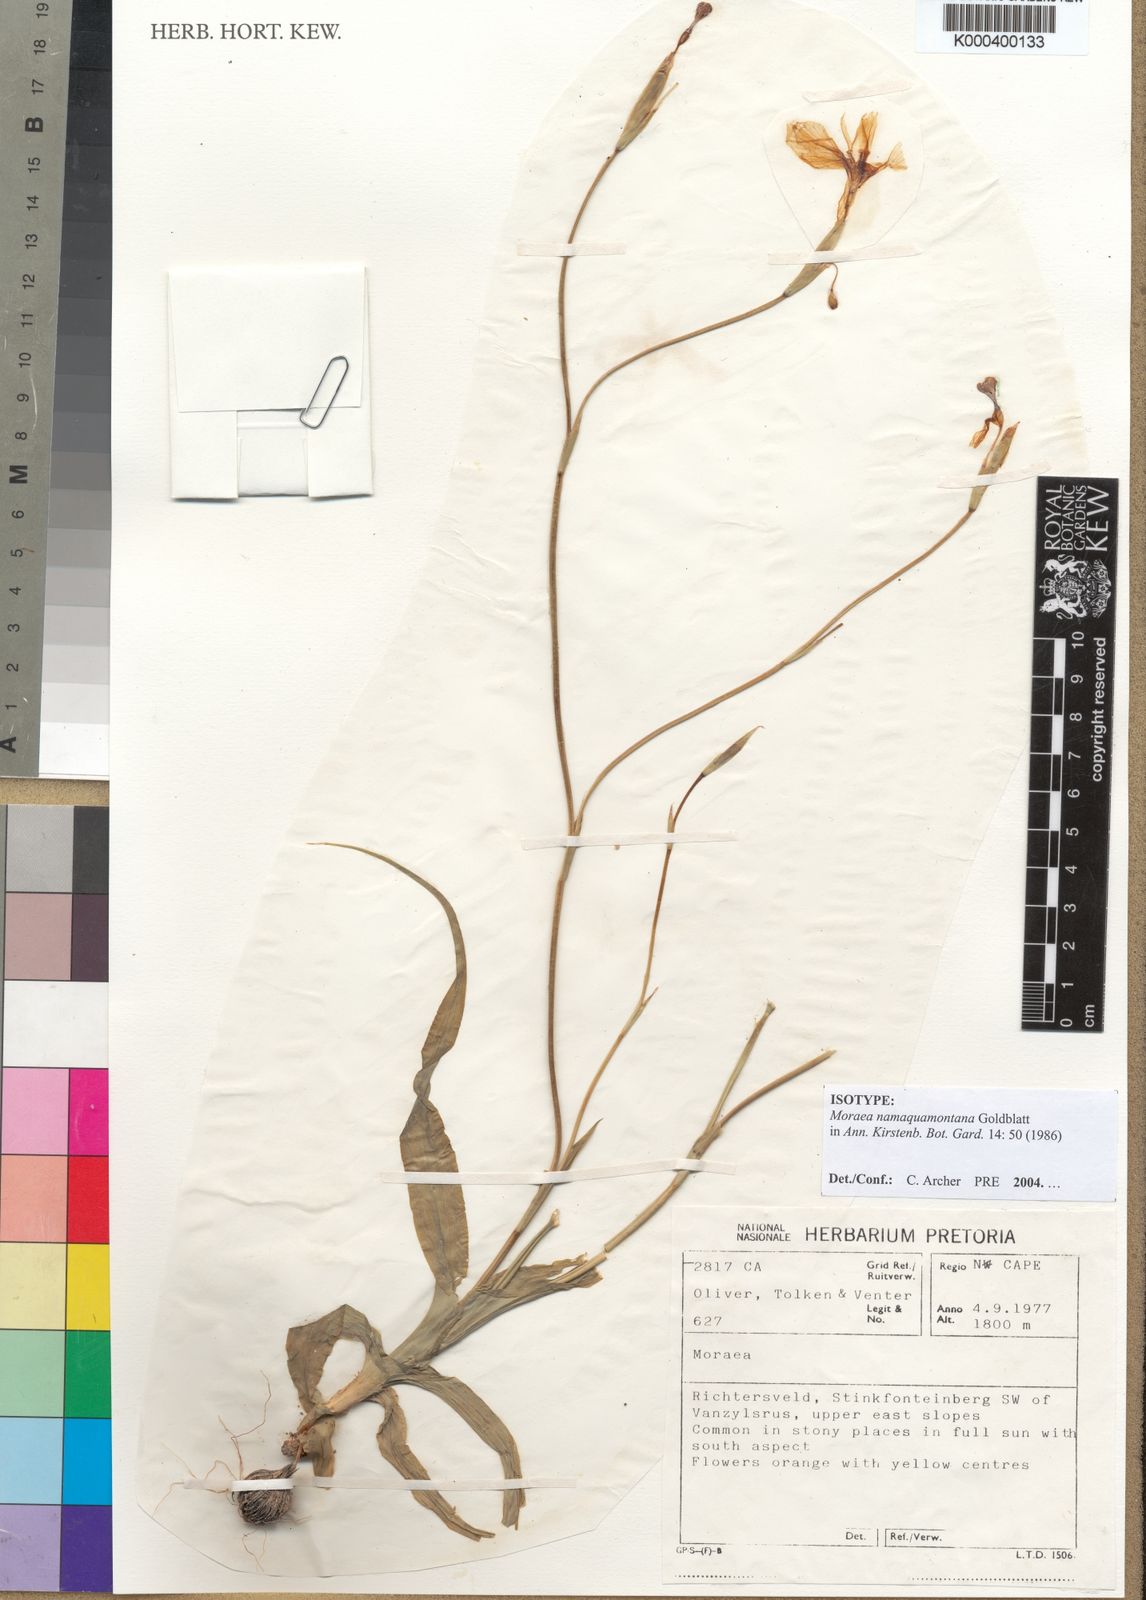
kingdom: Plantae
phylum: Tracheophyta
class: Liliopsida
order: Asparagales
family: Iridaceae
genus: Moraea
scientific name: Moraea namaquamontana
